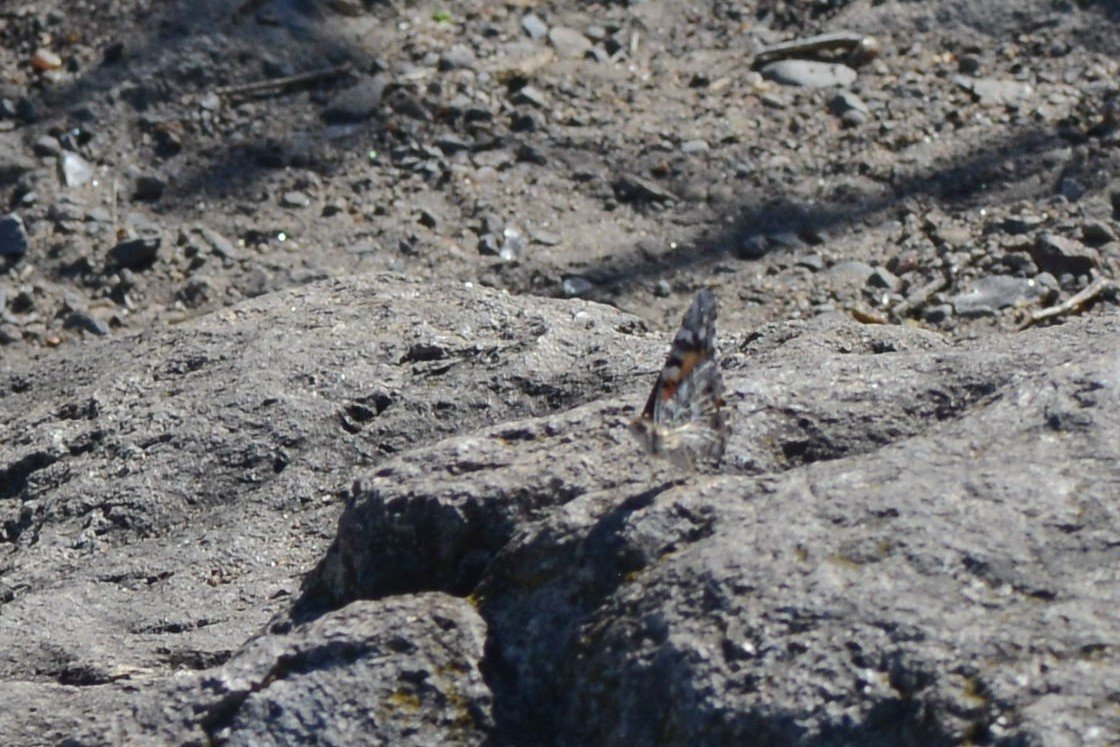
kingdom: Animalia
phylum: Arthropoda
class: Insecta
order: Lepidoptera
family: Nymphalidae
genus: Vanessa
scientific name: Vanessa cardui
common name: Painted Lady
